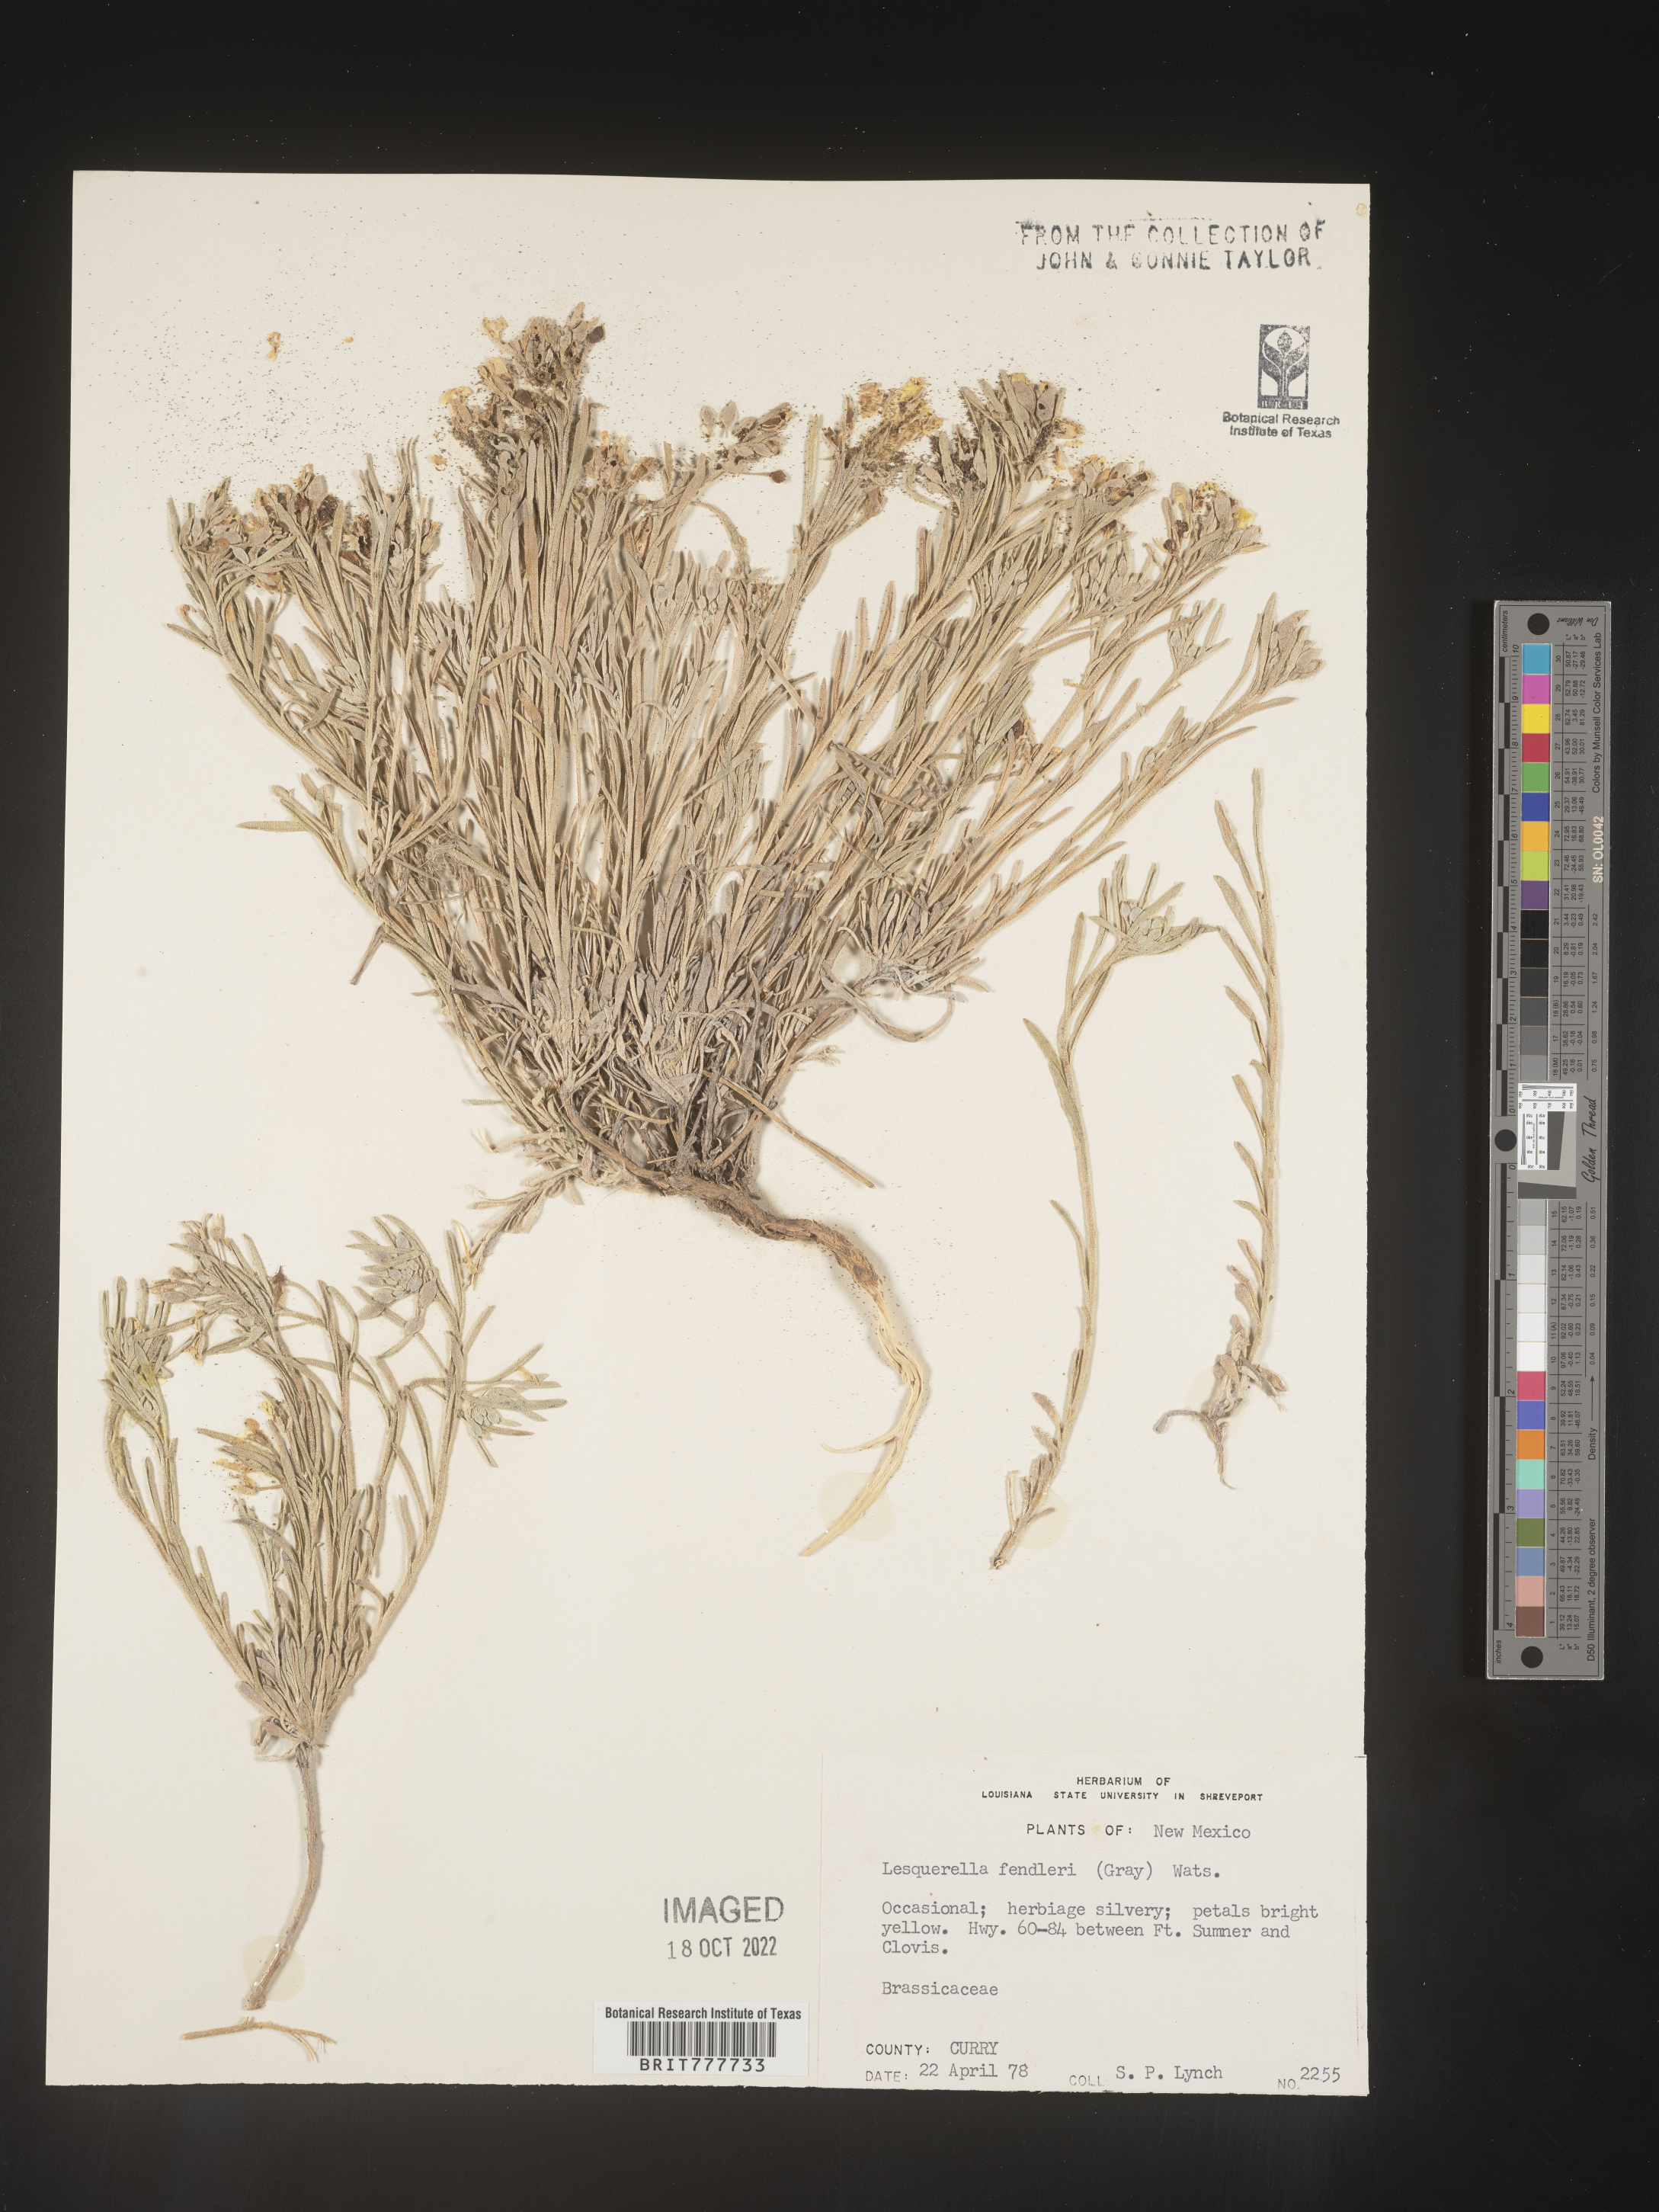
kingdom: Plantae
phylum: Tracheophyta
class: Magnoliopsida
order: Brassicales
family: Brassicaceae
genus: Physaria
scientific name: Physaria fendleri
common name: Fendler's bladderpod
